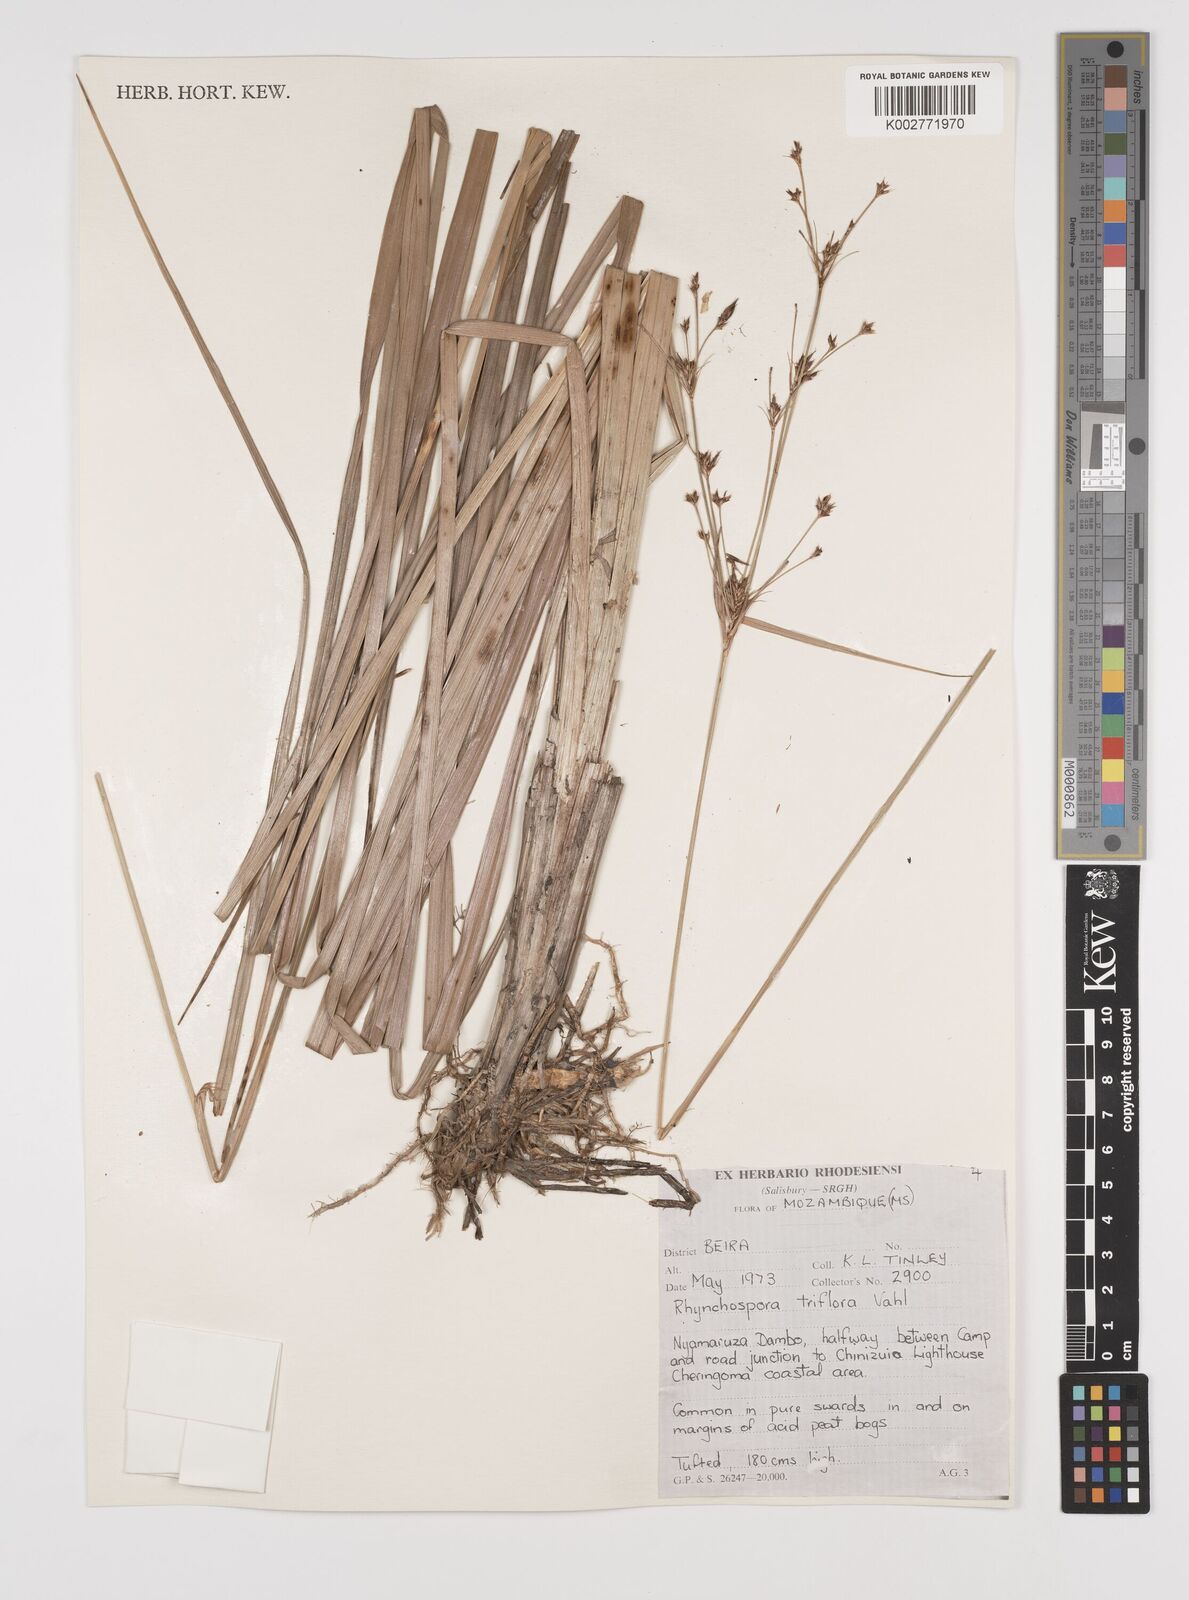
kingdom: Plantae
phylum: Tracheophyta
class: Liliopsida
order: Poales
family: Cyperaceae
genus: Rhynchospora
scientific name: Rhynchospora triflora
